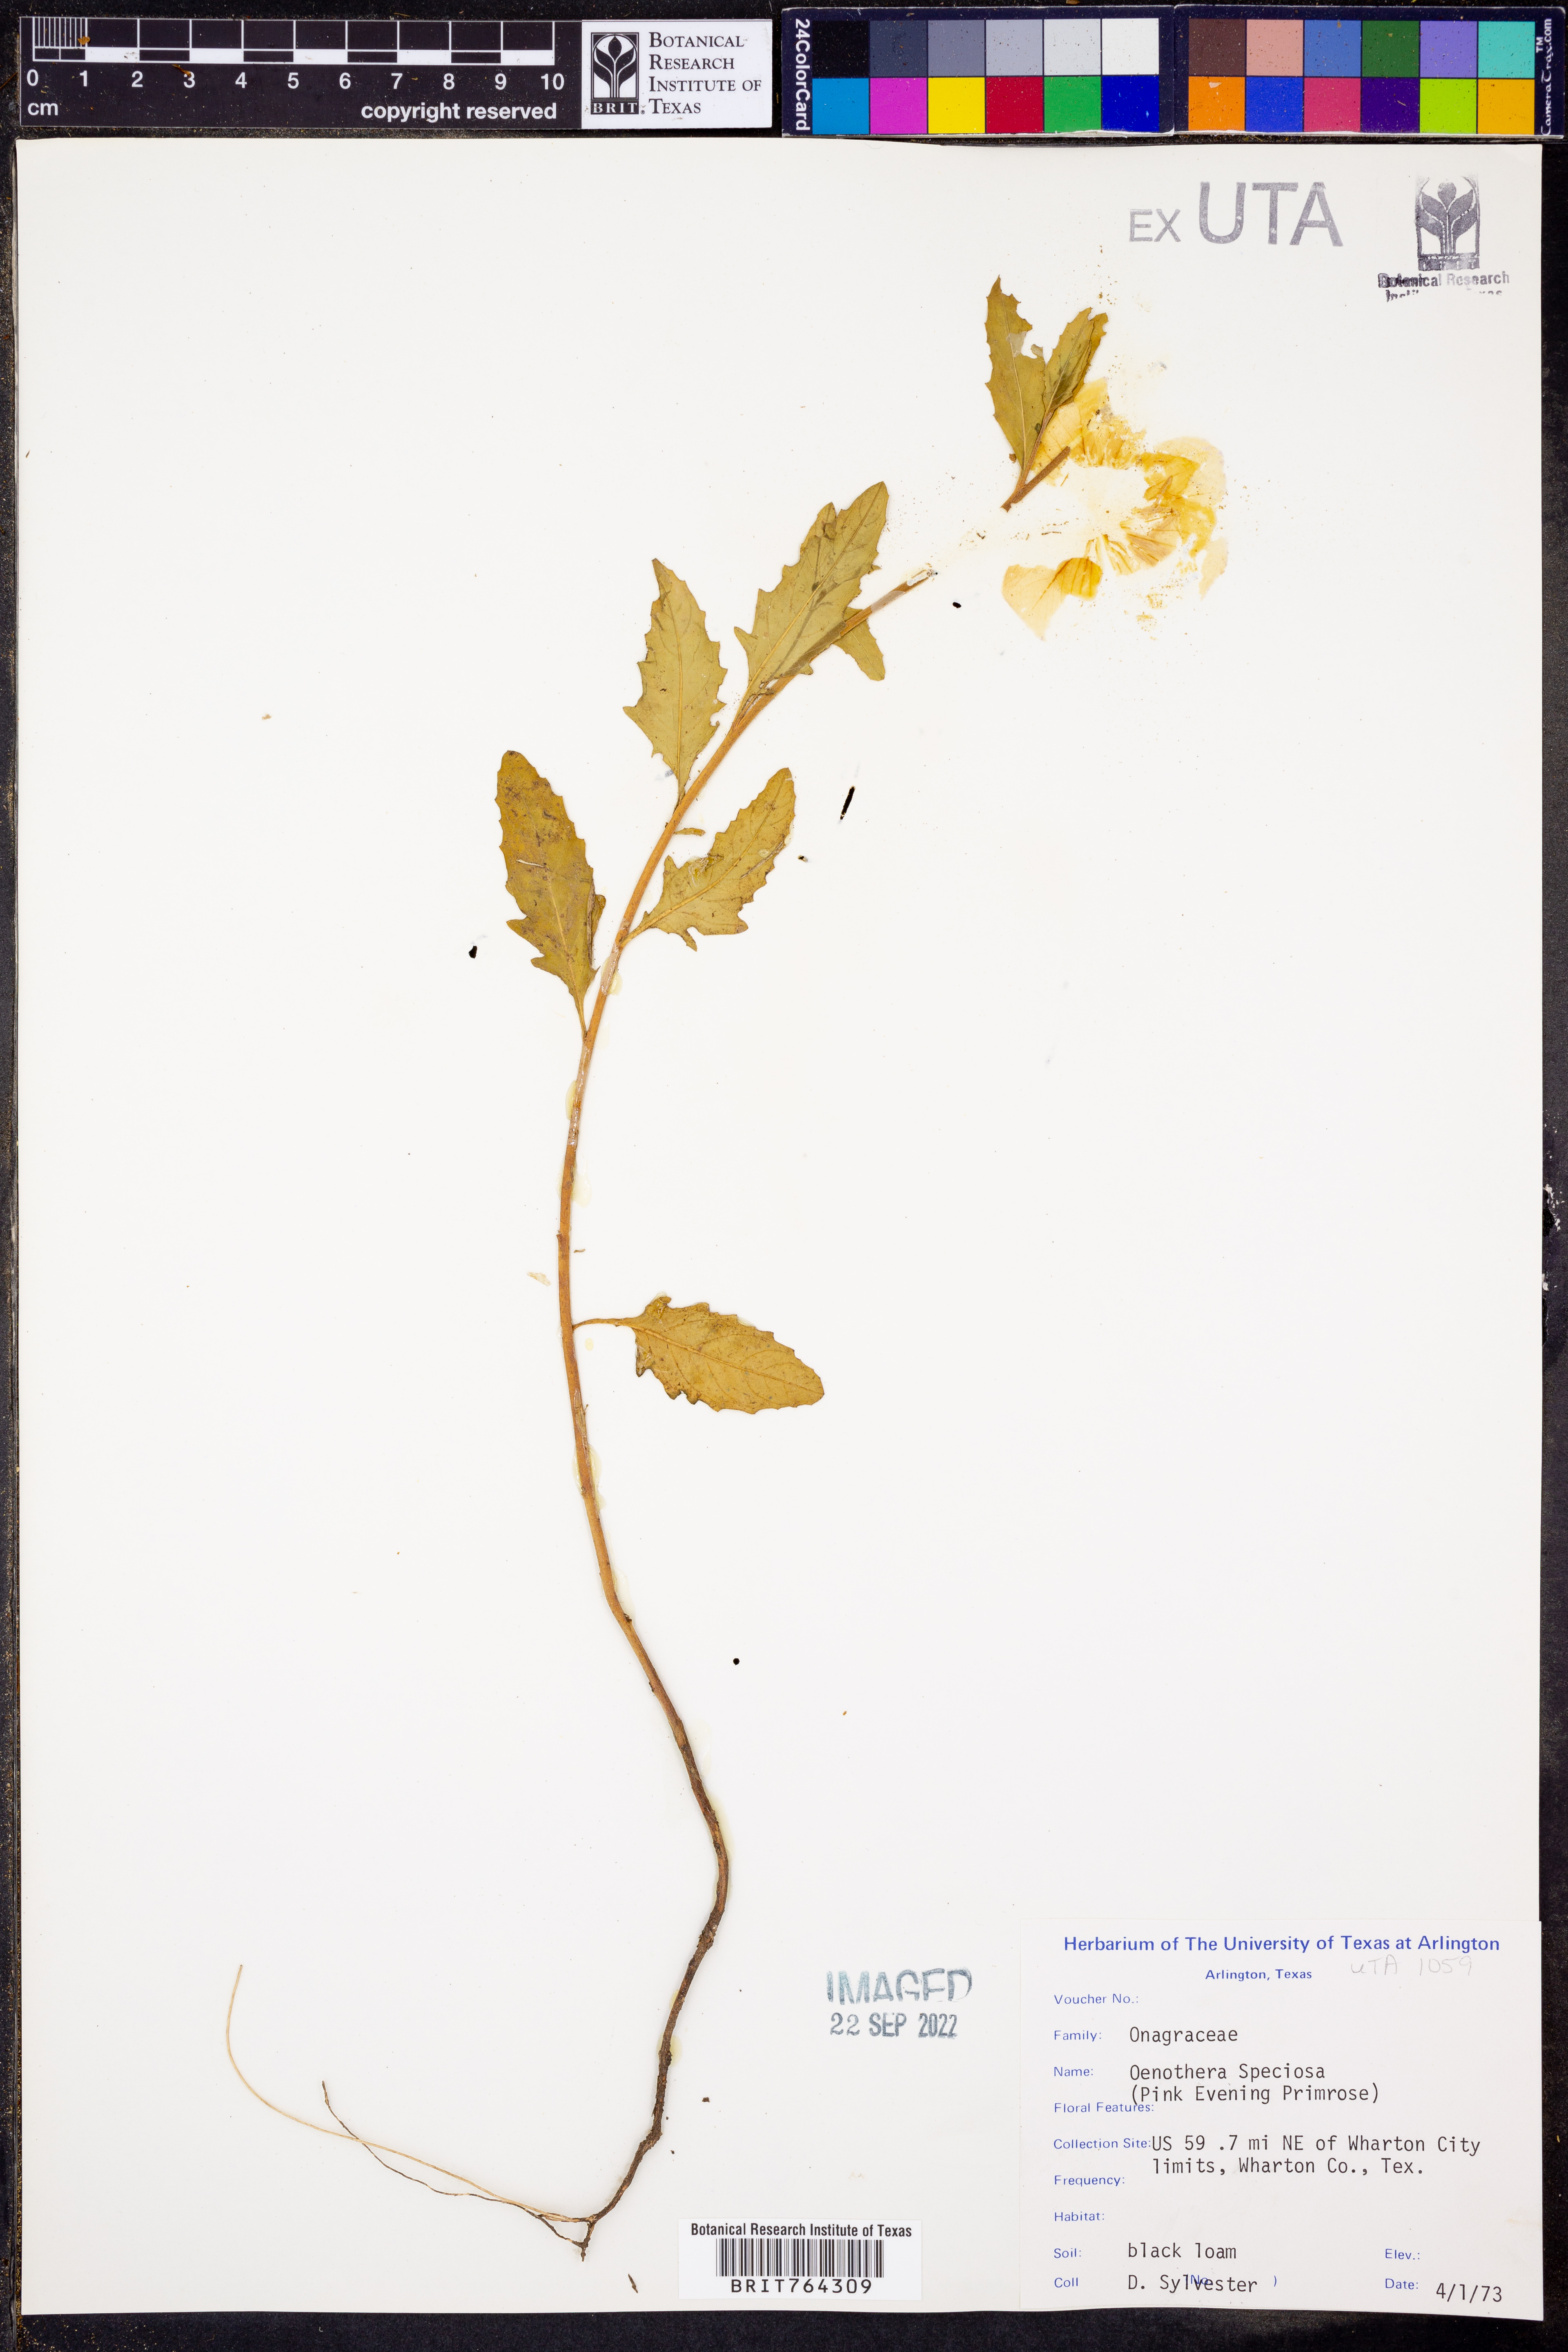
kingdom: Plantae
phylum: Tracheophyta
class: Magnoliopsida
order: Myrtales
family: Onagraceae
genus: Oenothera
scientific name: Oenothera speciosa
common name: White evening-primrose
